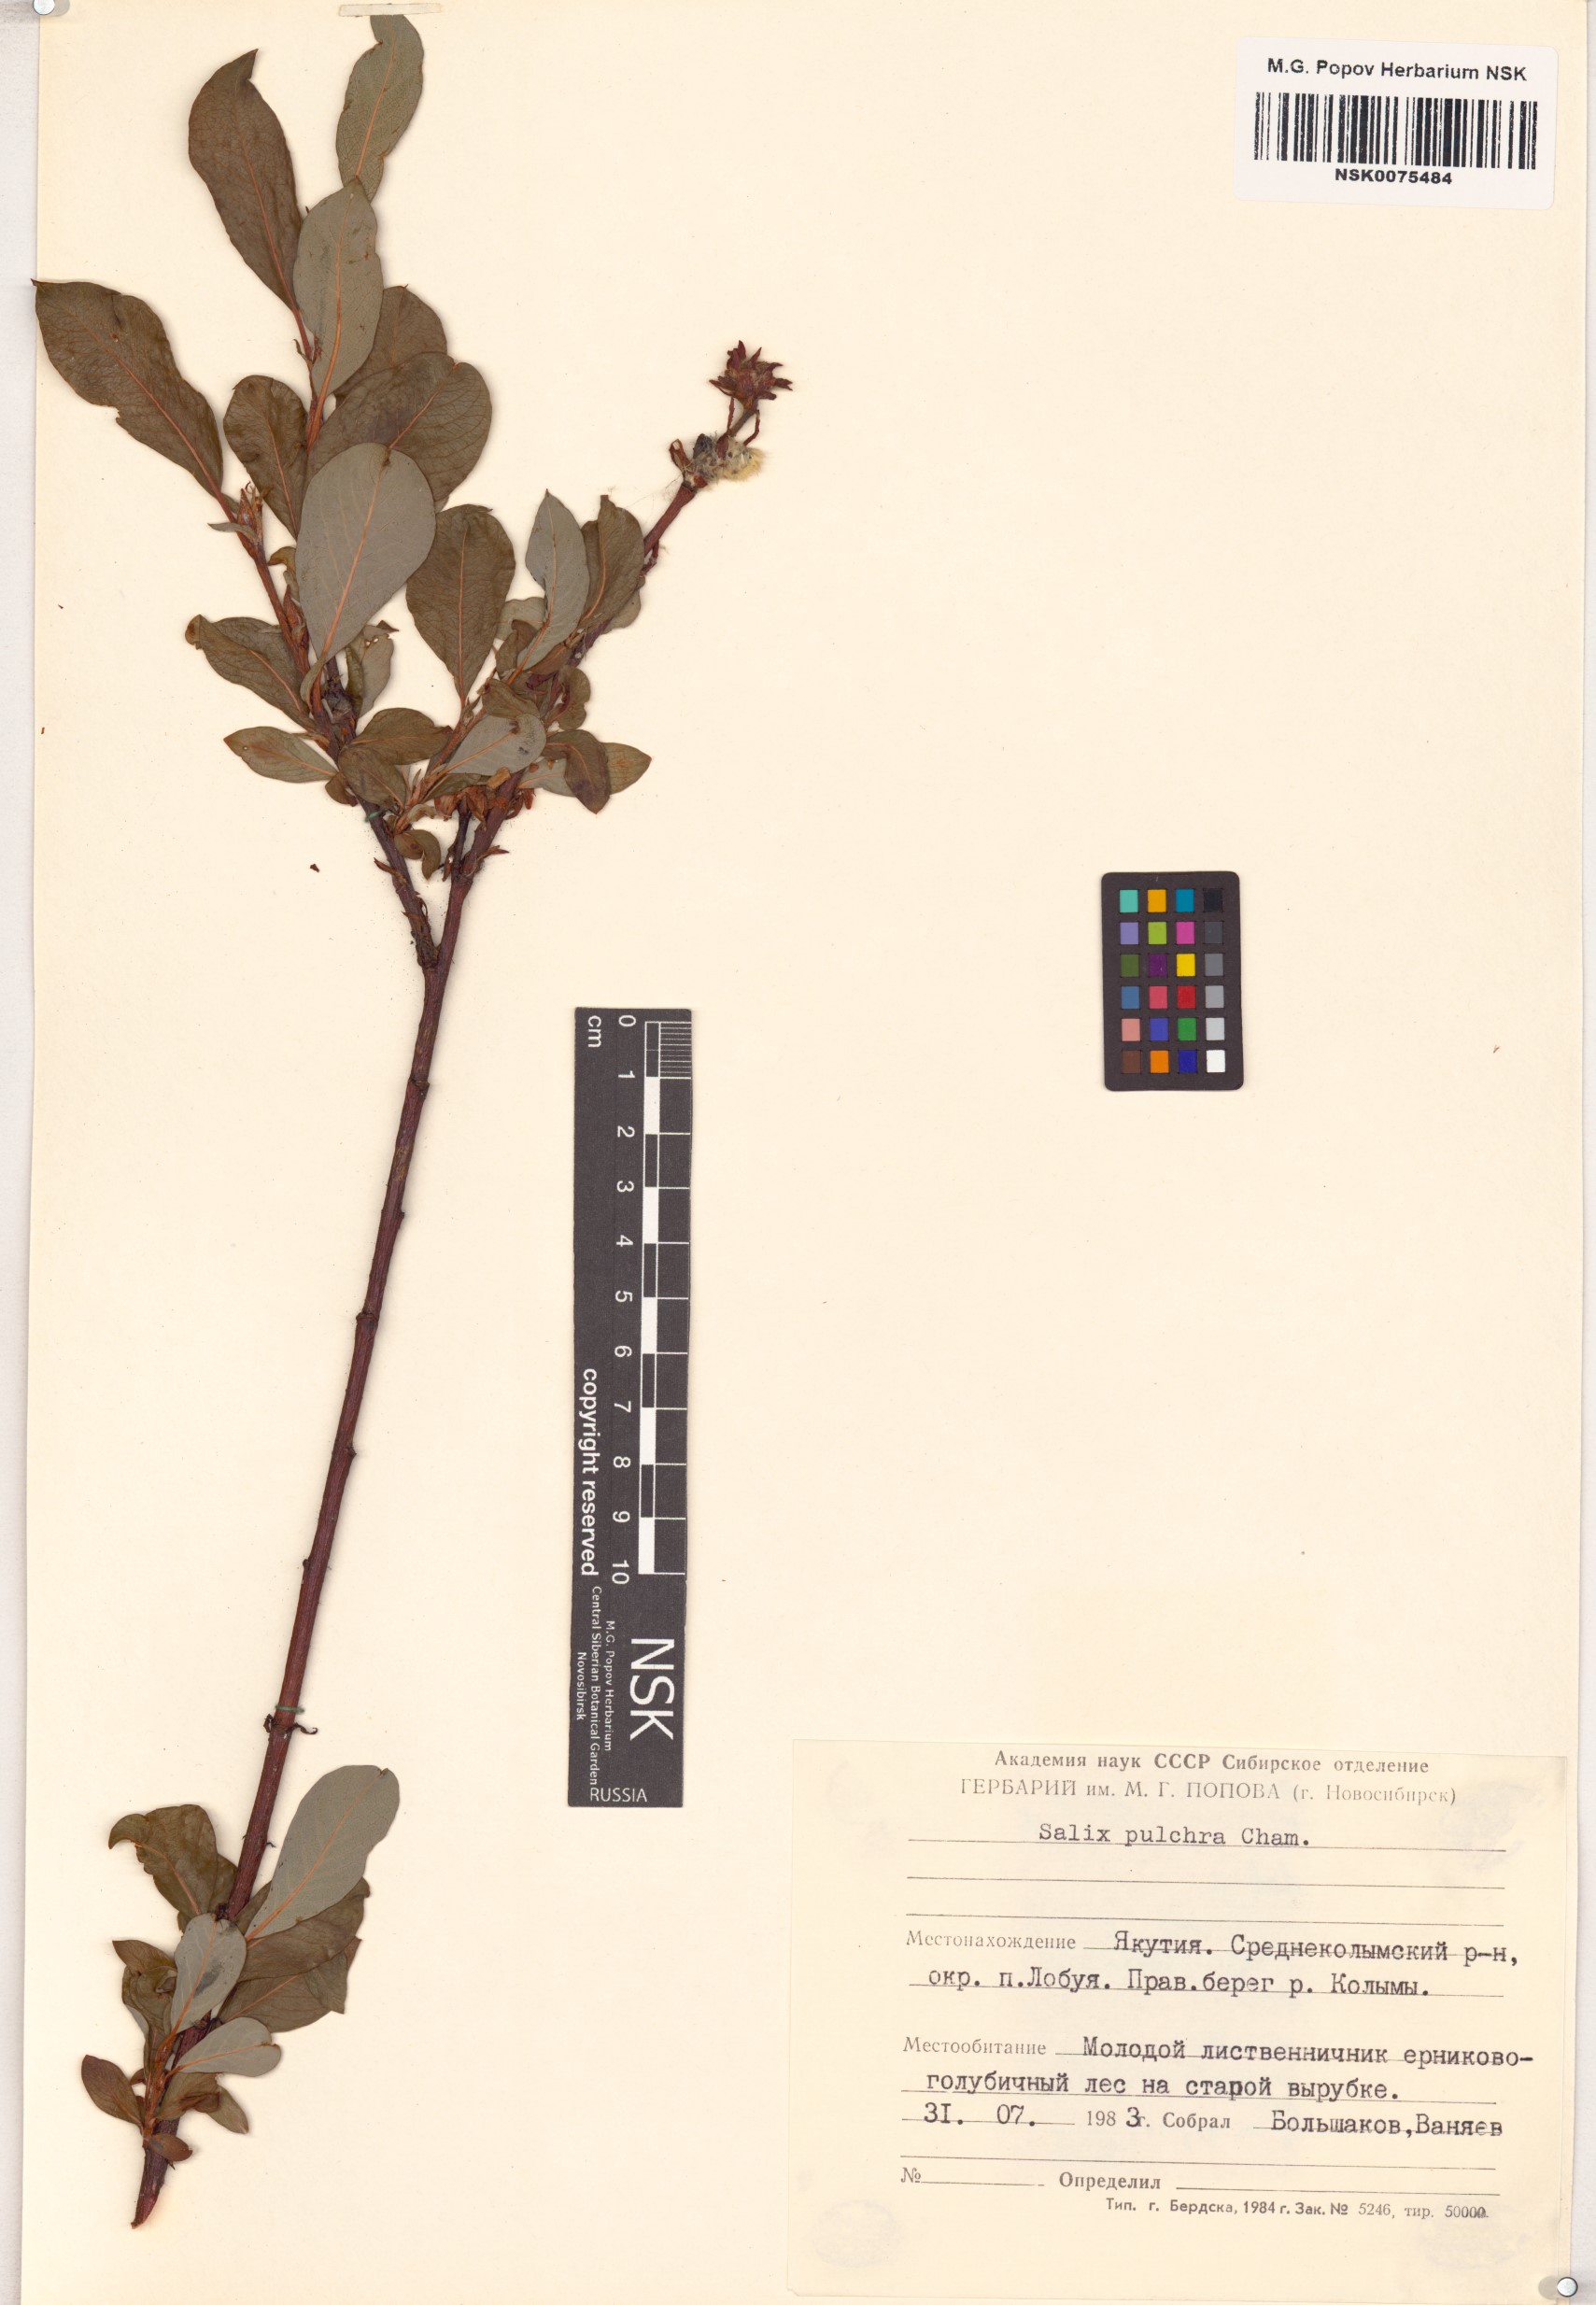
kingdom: Plantae
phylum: Tracheophyta
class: Magnoliopsida
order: Malpighiales
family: Salicaceae
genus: Salix
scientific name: Salix pulchra
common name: Diamond-leaved willow
